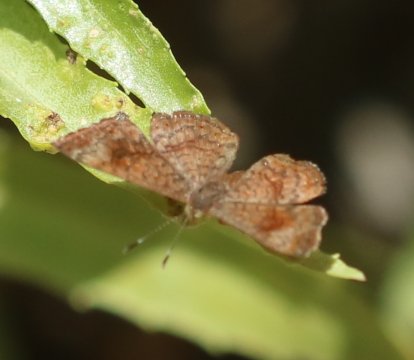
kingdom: Animalia
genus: Calephelis
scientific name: Calephelis
